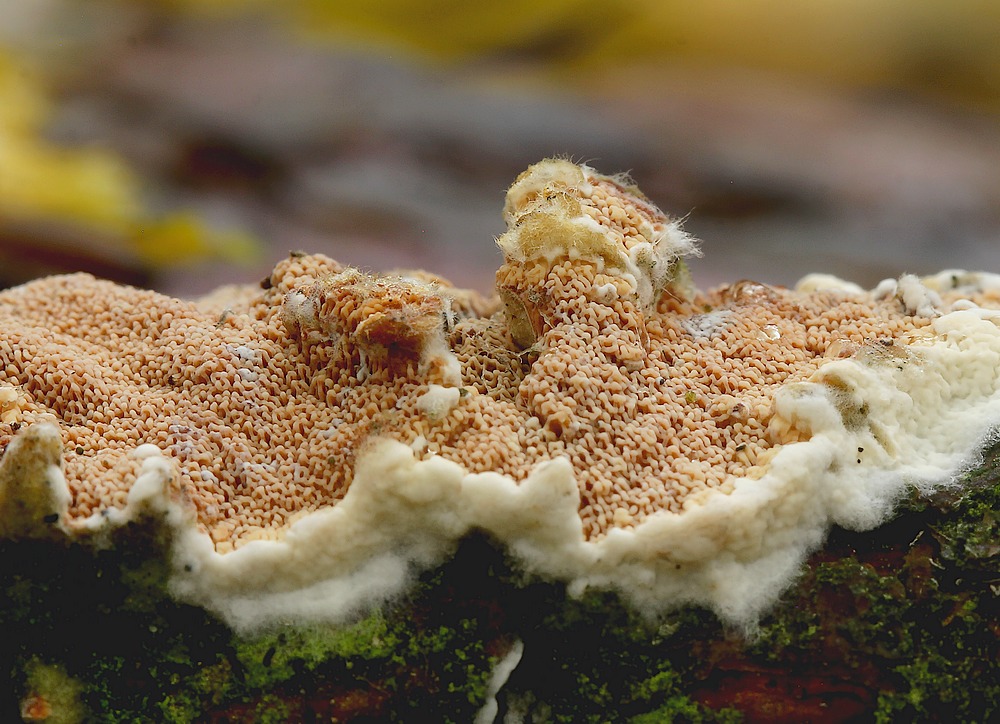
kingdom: Fungi
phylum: Basidiomycota
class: Agaricomycetes
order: Polyporales
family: Irpicaceae
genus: Meruliopsis
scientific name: Meruliopsis taxicola
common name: purpurbrun foldporesvamp
